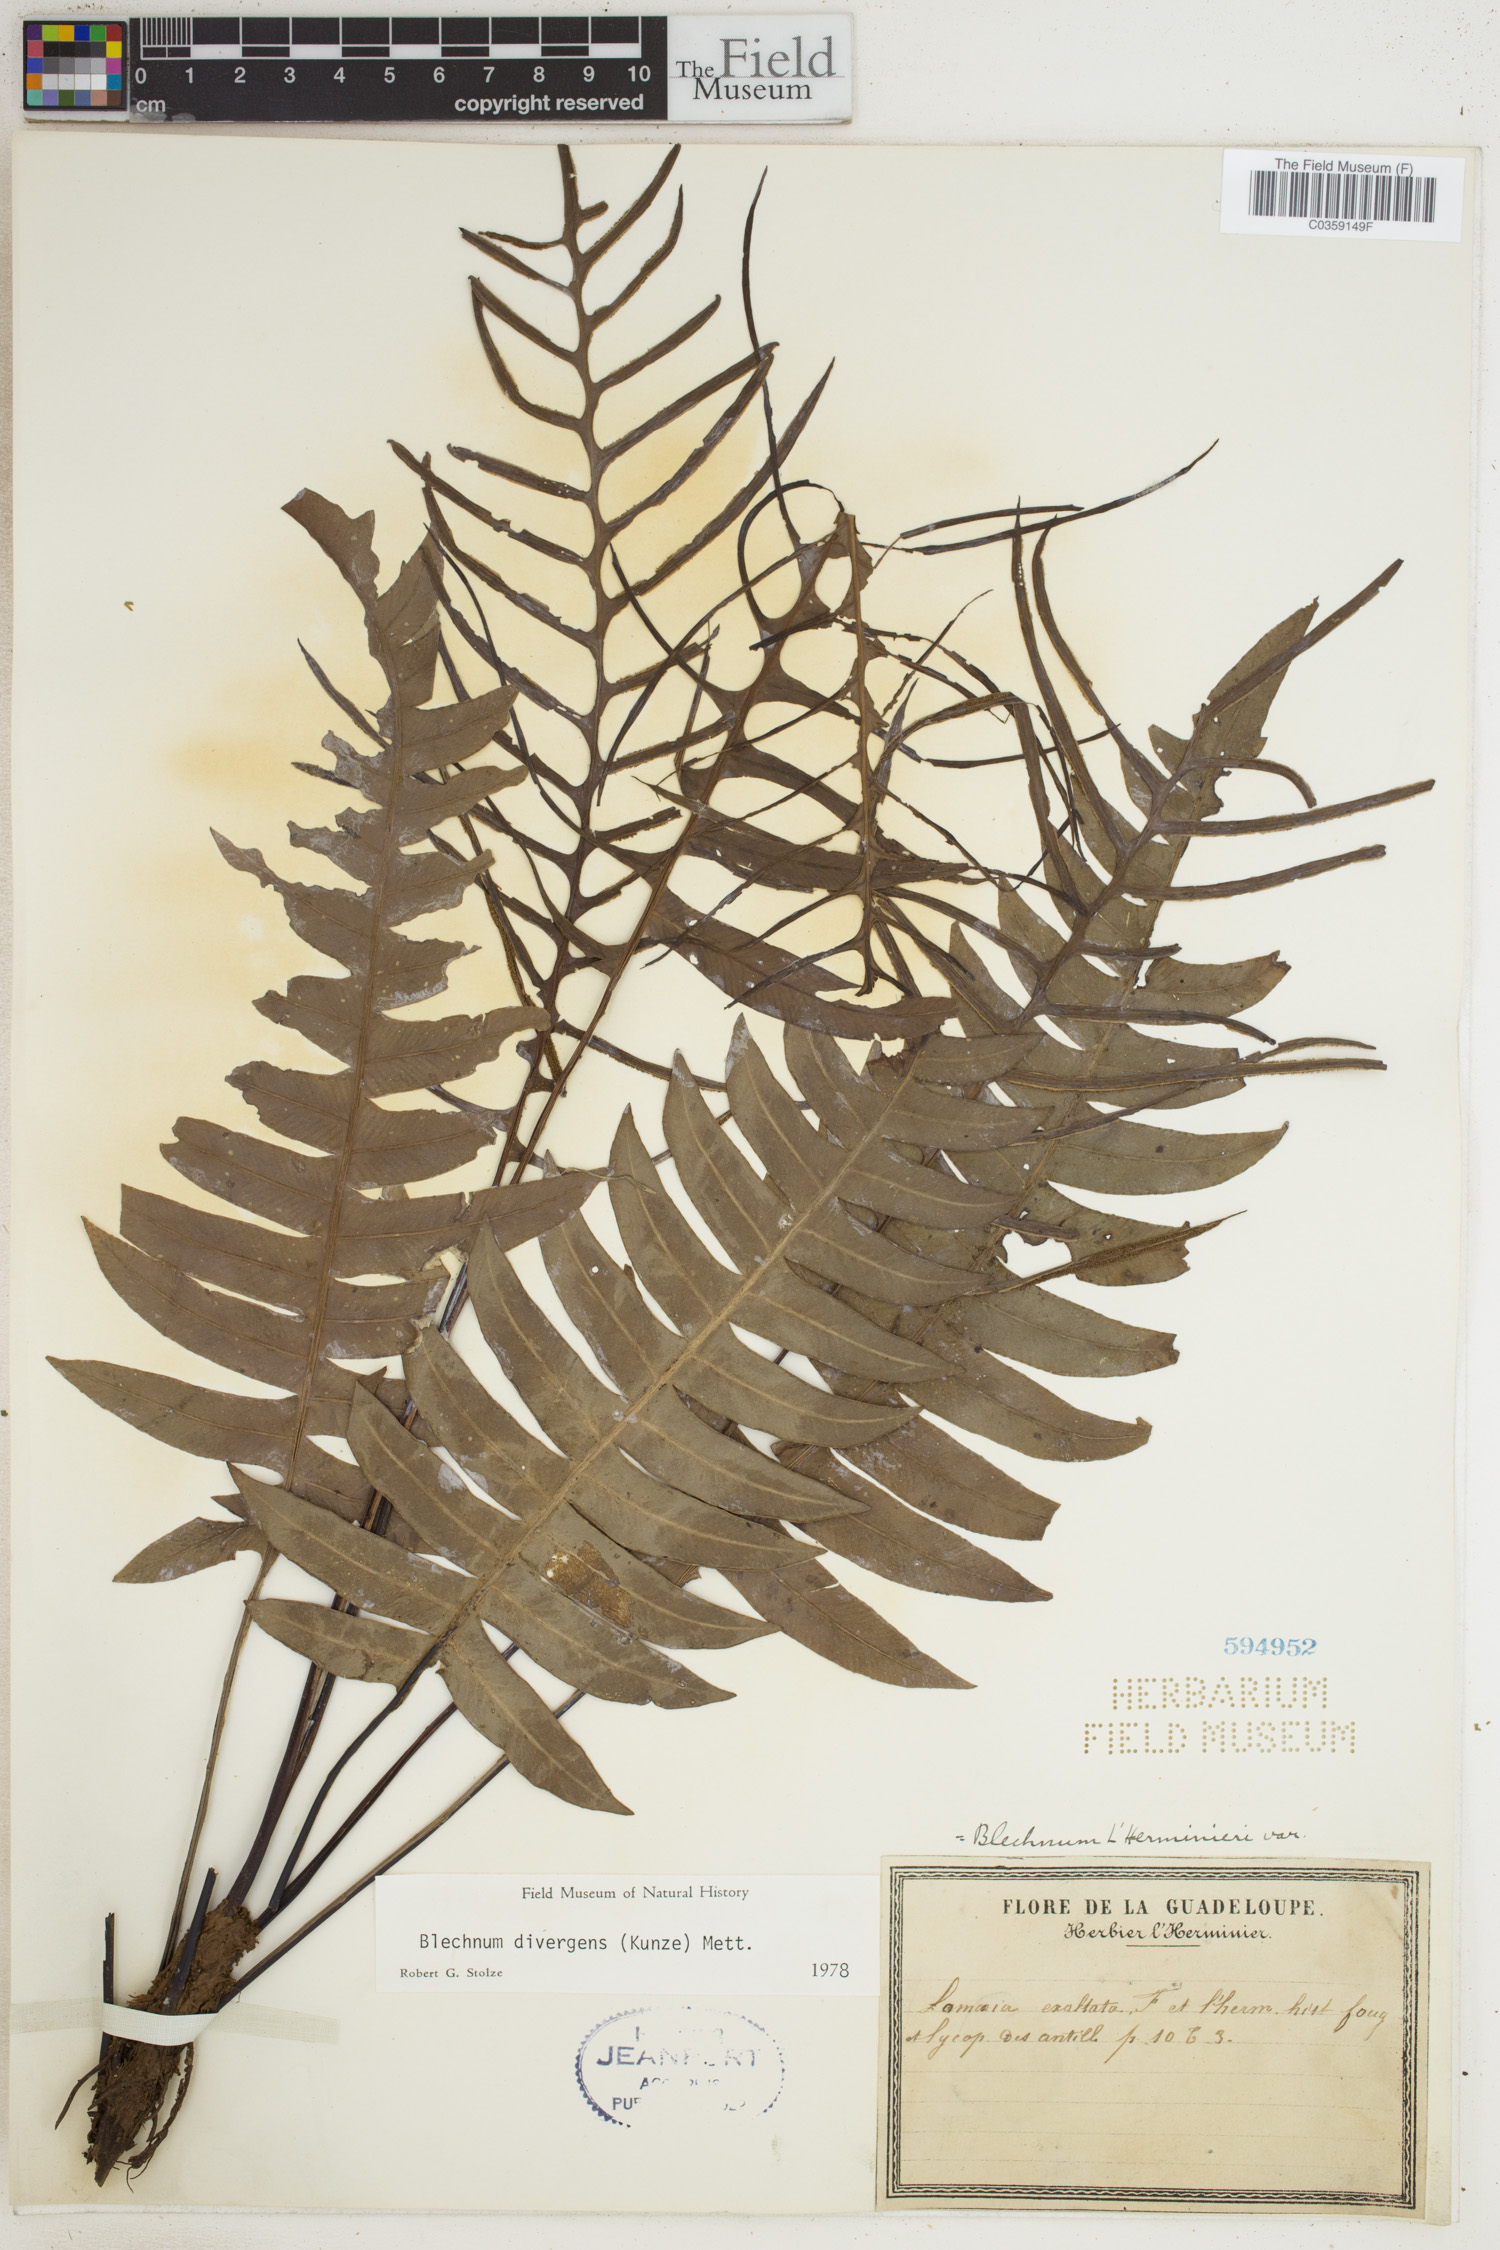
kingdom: Plantae
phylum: Tracheophyta
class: Polypodiopsida
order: Polypodiales
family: Blechnaceae
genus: Austroblechnum
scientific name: Austroblechnum divergens
